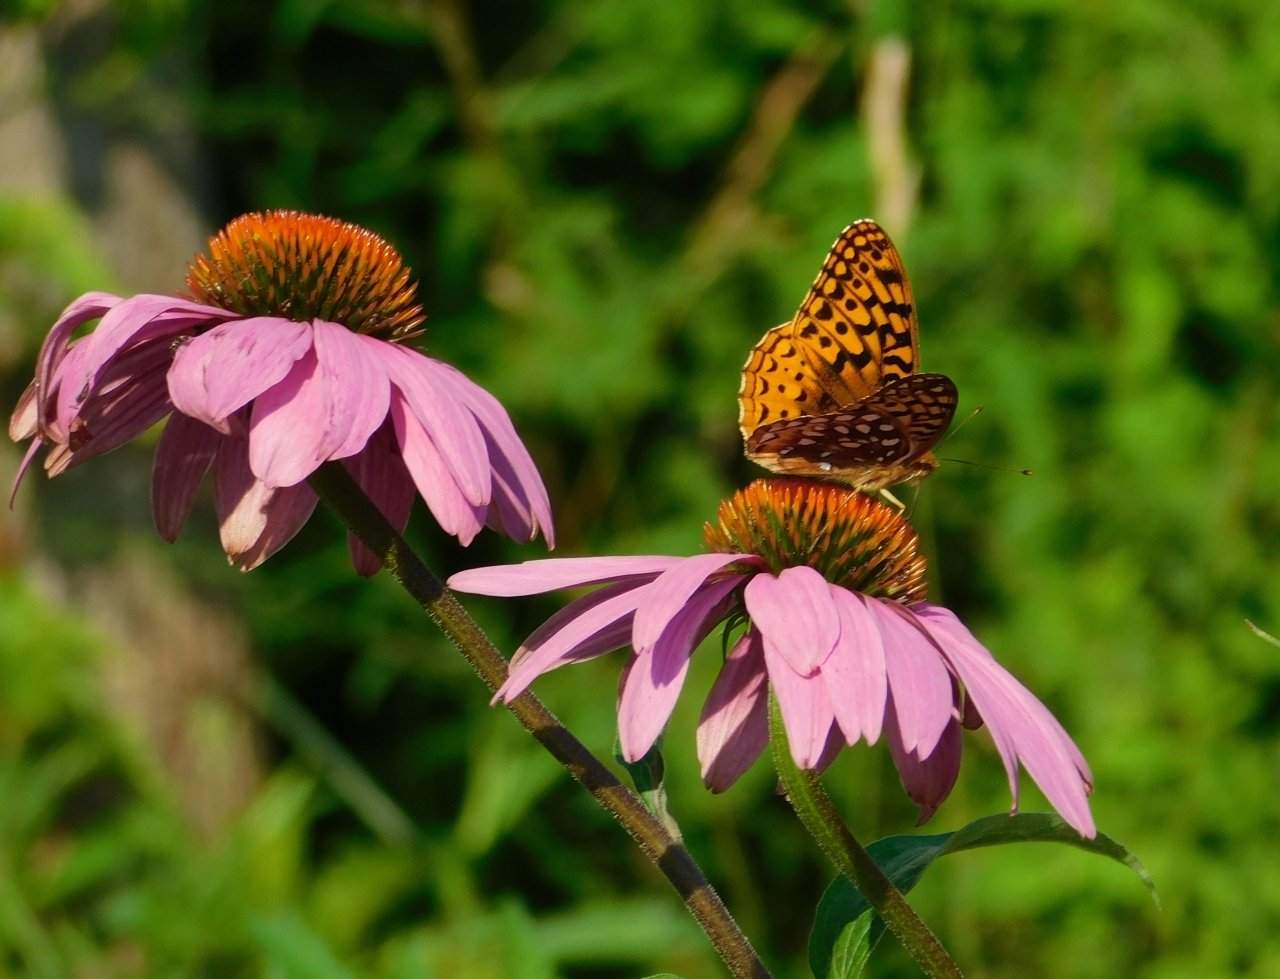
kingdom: Animalia
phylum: Arthropoda
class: Insecta
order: Lepidoptera
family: Nymphalidae
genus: Speyeria
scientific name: Speyeria cybele
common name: Great Spangled Fritillary
